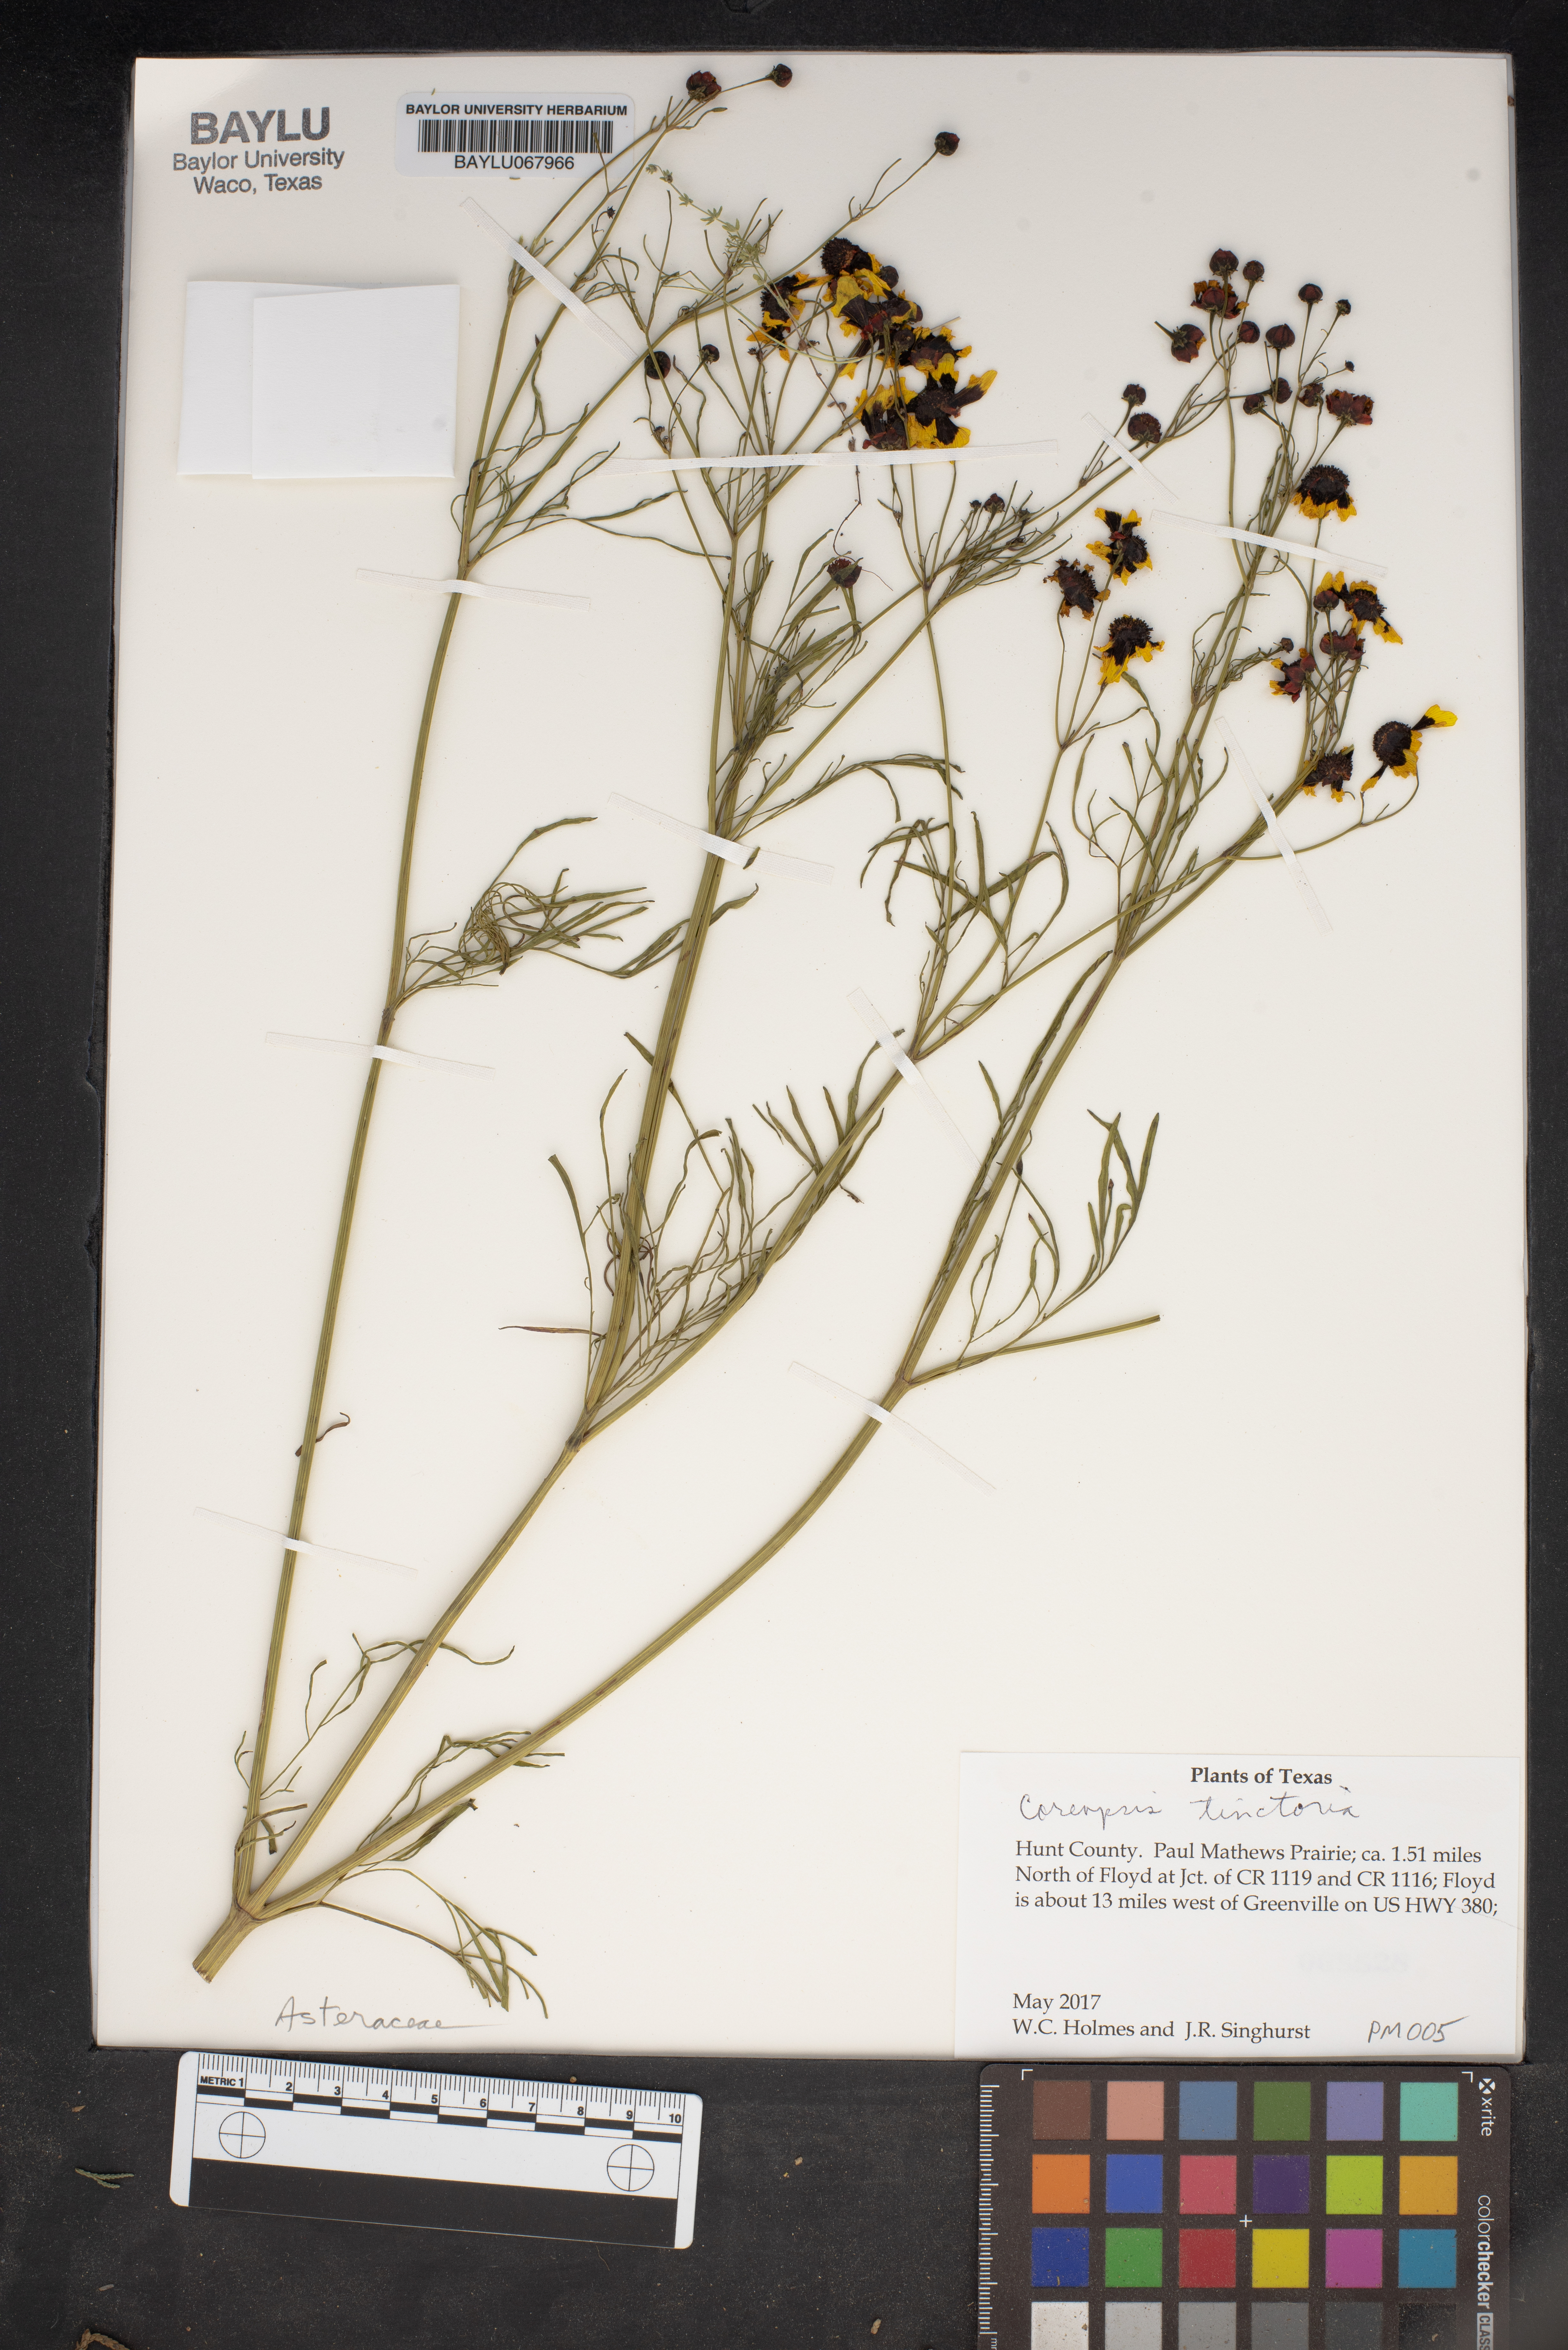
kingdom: Plantae
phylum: Tracheophyta
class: Magnoliopsida
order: Asterales
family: Asteraceae
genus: Coreopsis
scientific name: Coreopsis tinctoria
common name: Garden tickseed
